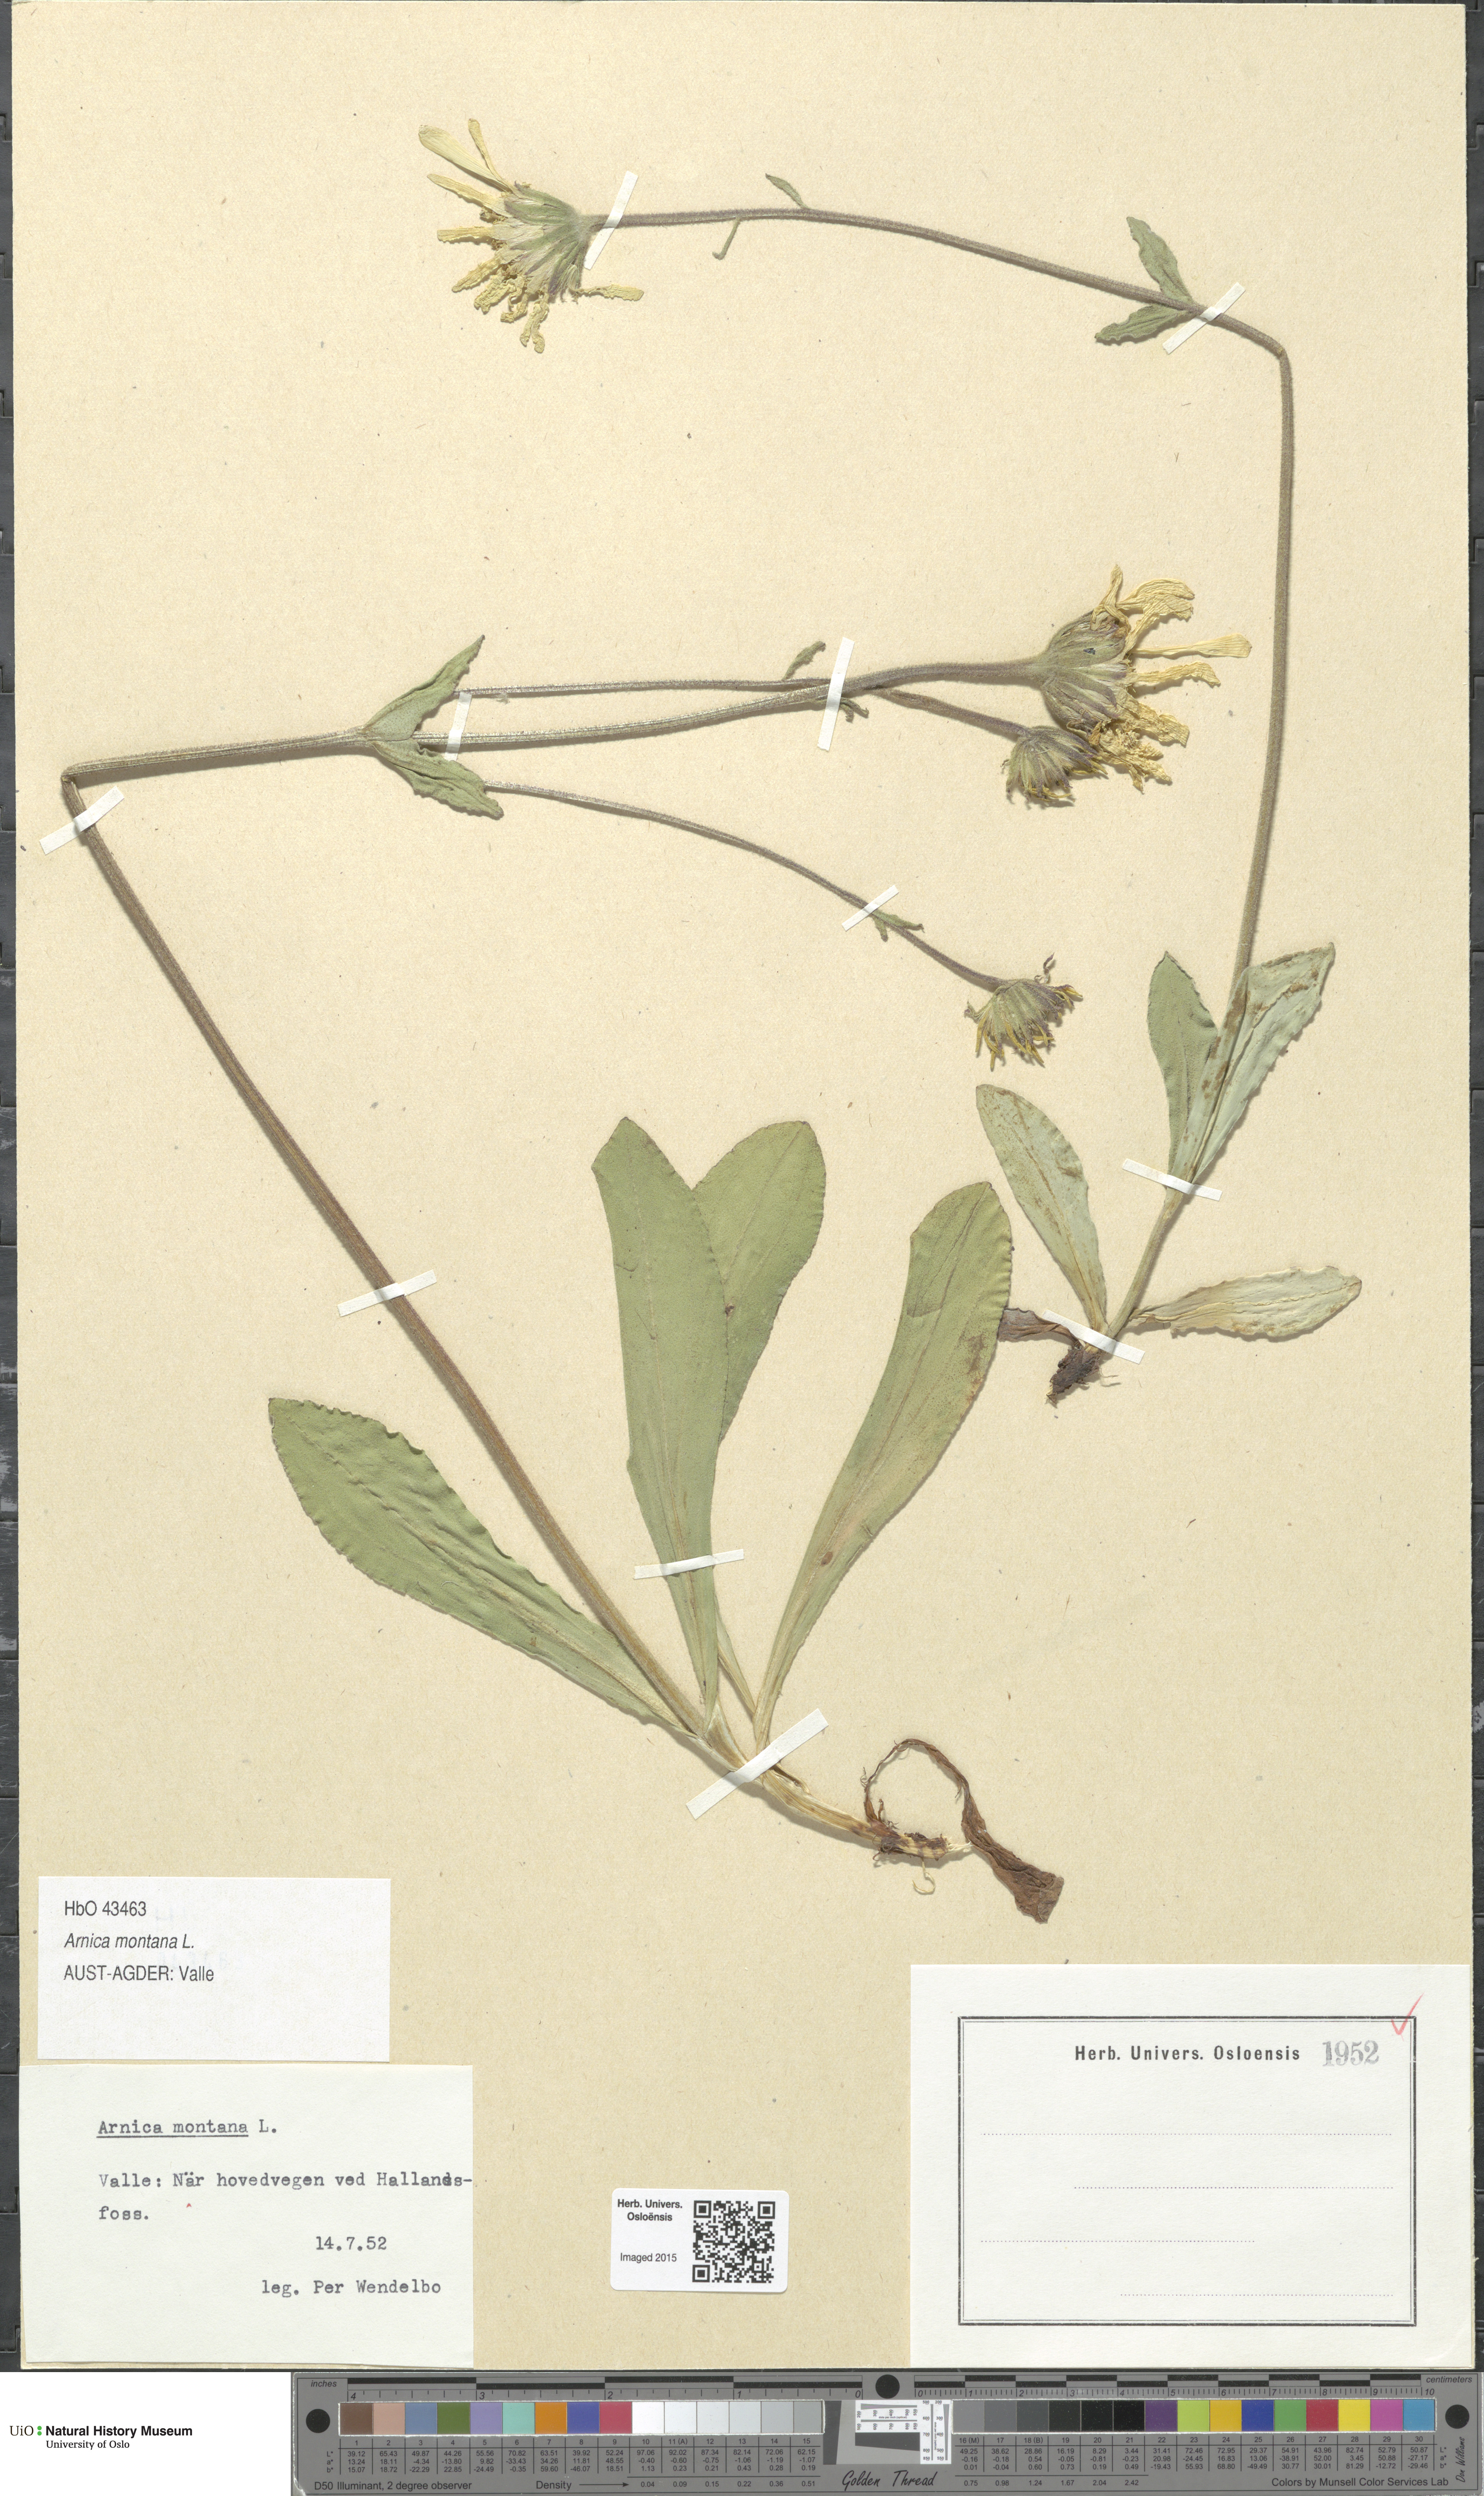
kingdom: Plantae
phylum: Tracheophyta
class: Magnoliopsida
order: Asterales
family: Asteraceae
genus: Arnica
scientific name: Arnica montana
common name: Leopard's bane
